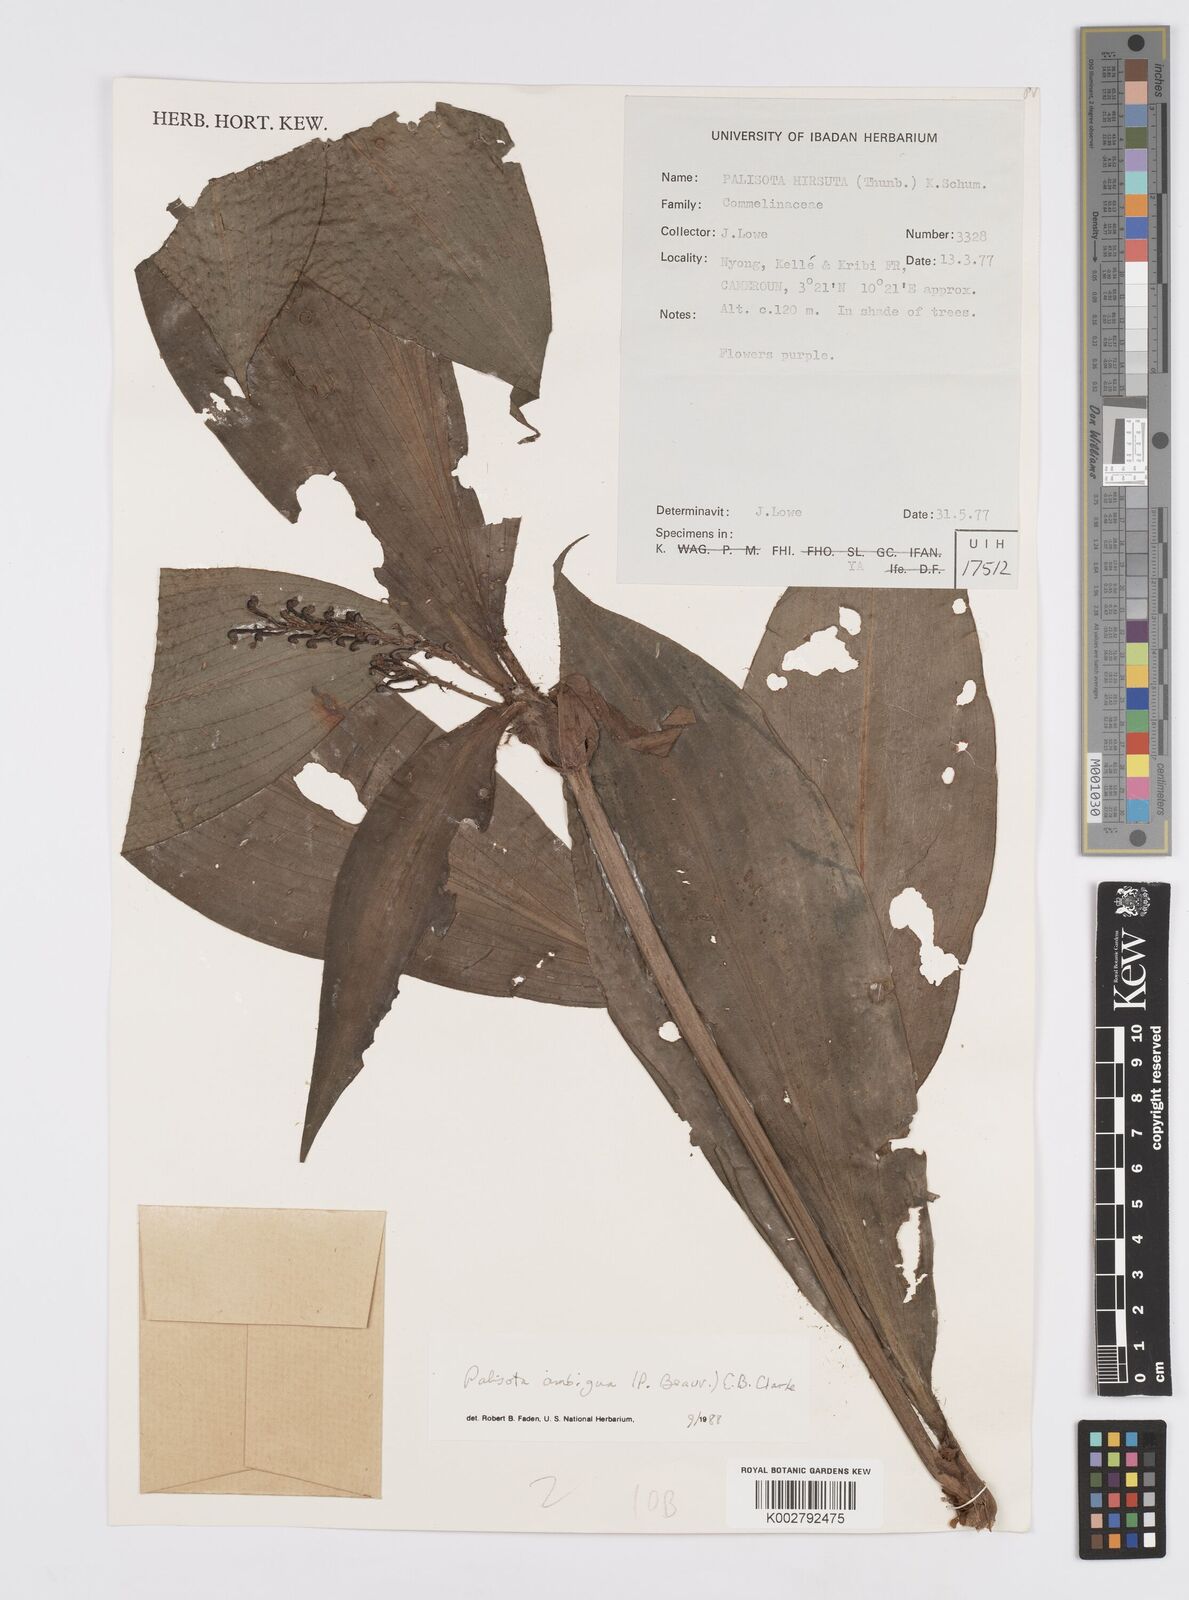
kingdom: Plantae
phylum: Tracheophyta
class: Liliopsida
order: Commelinales
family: Commelinaceae
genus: Palisota
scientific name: Palisota ambigua
